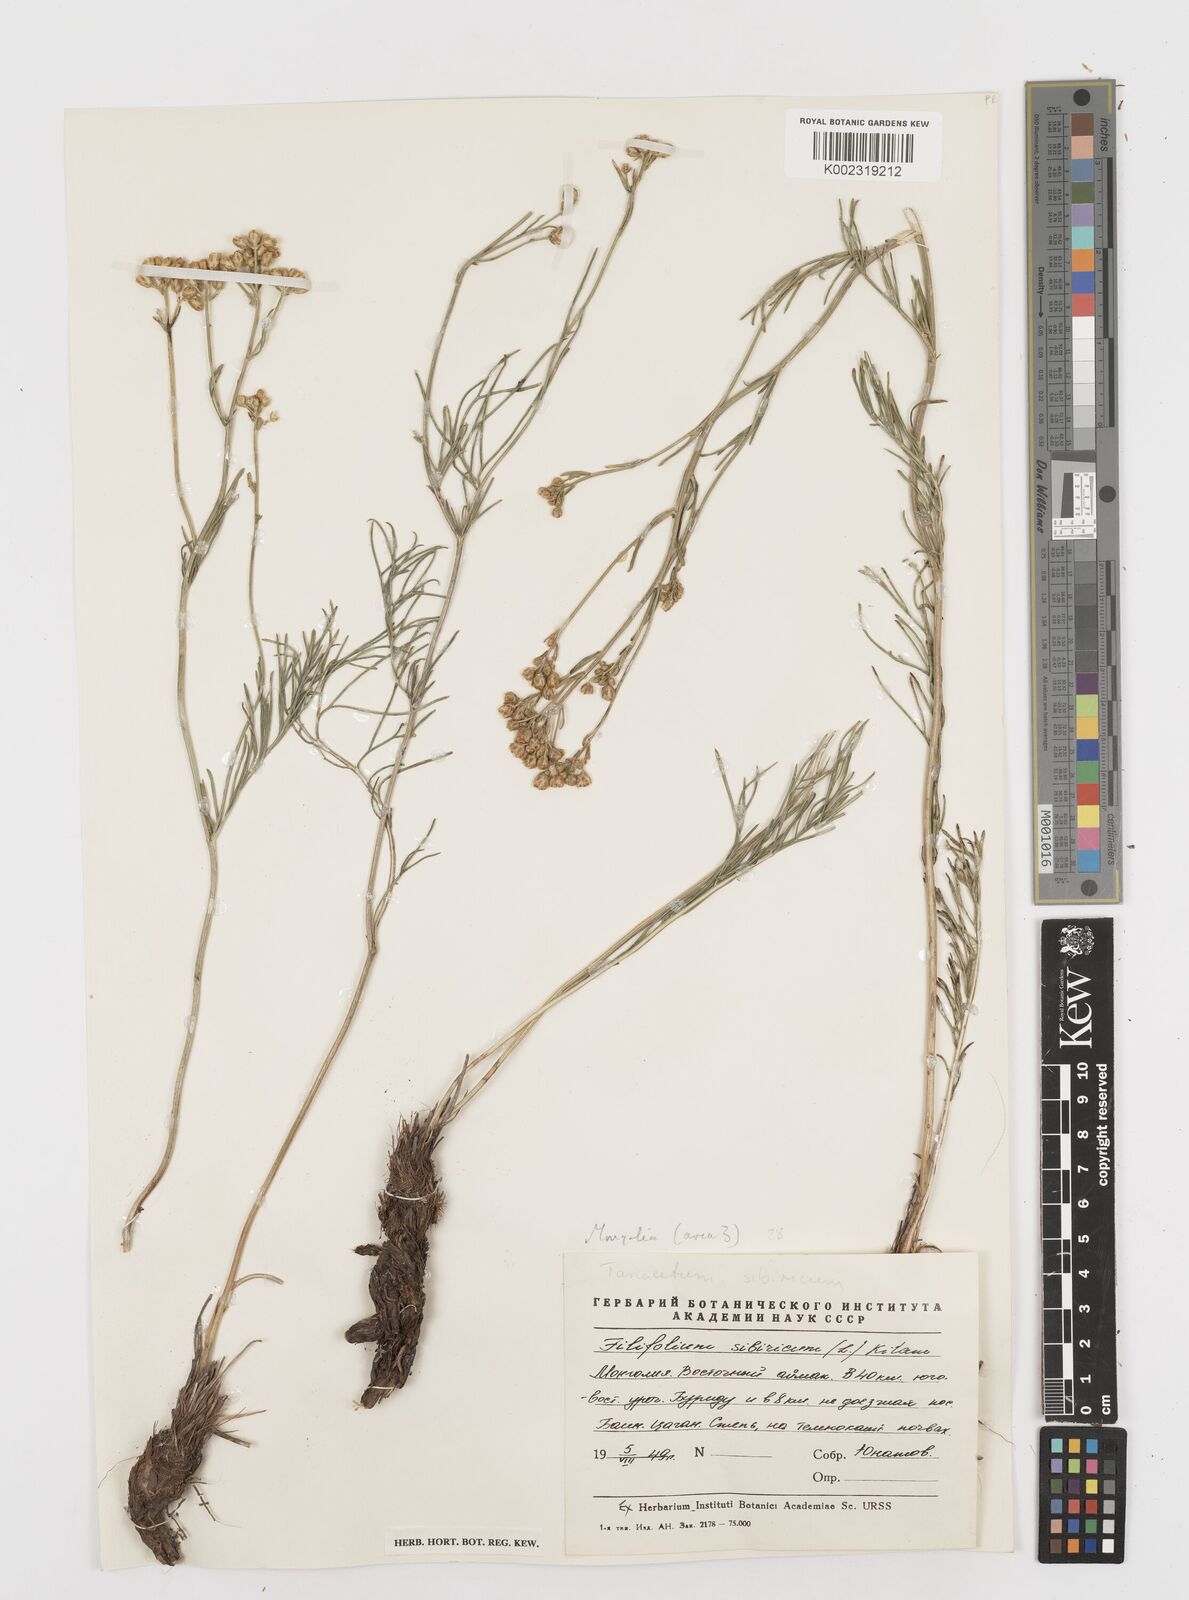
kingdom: Plantae
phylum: Tracheophyta
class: Magnoliopsida
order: Asterales
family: Asteraceae
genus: Filifolium
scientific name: Filifolium sibiricum
